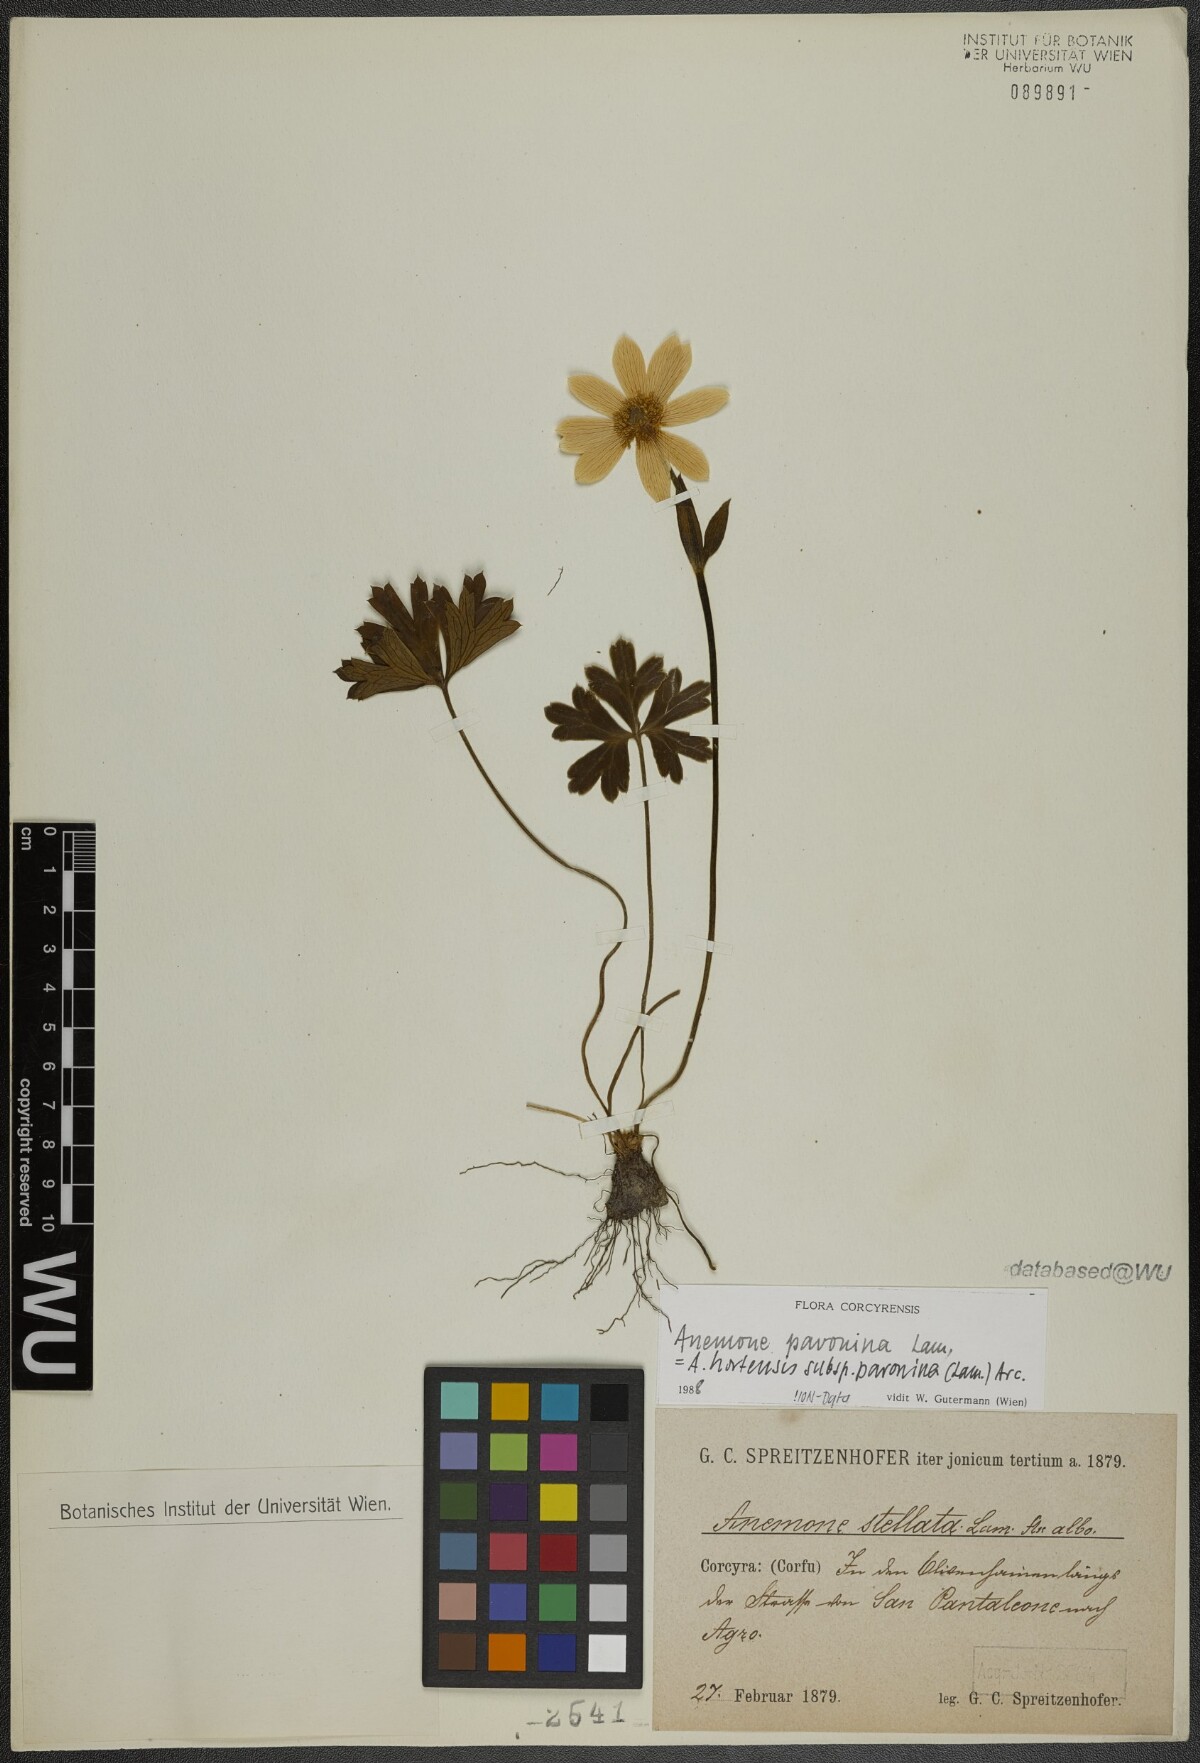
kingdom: Plantae
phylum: Tracheophyta
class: Magnoliopsida
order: Ranunculales
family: Ranunculaceae
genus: Anemone
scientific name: Anemone pavonina
